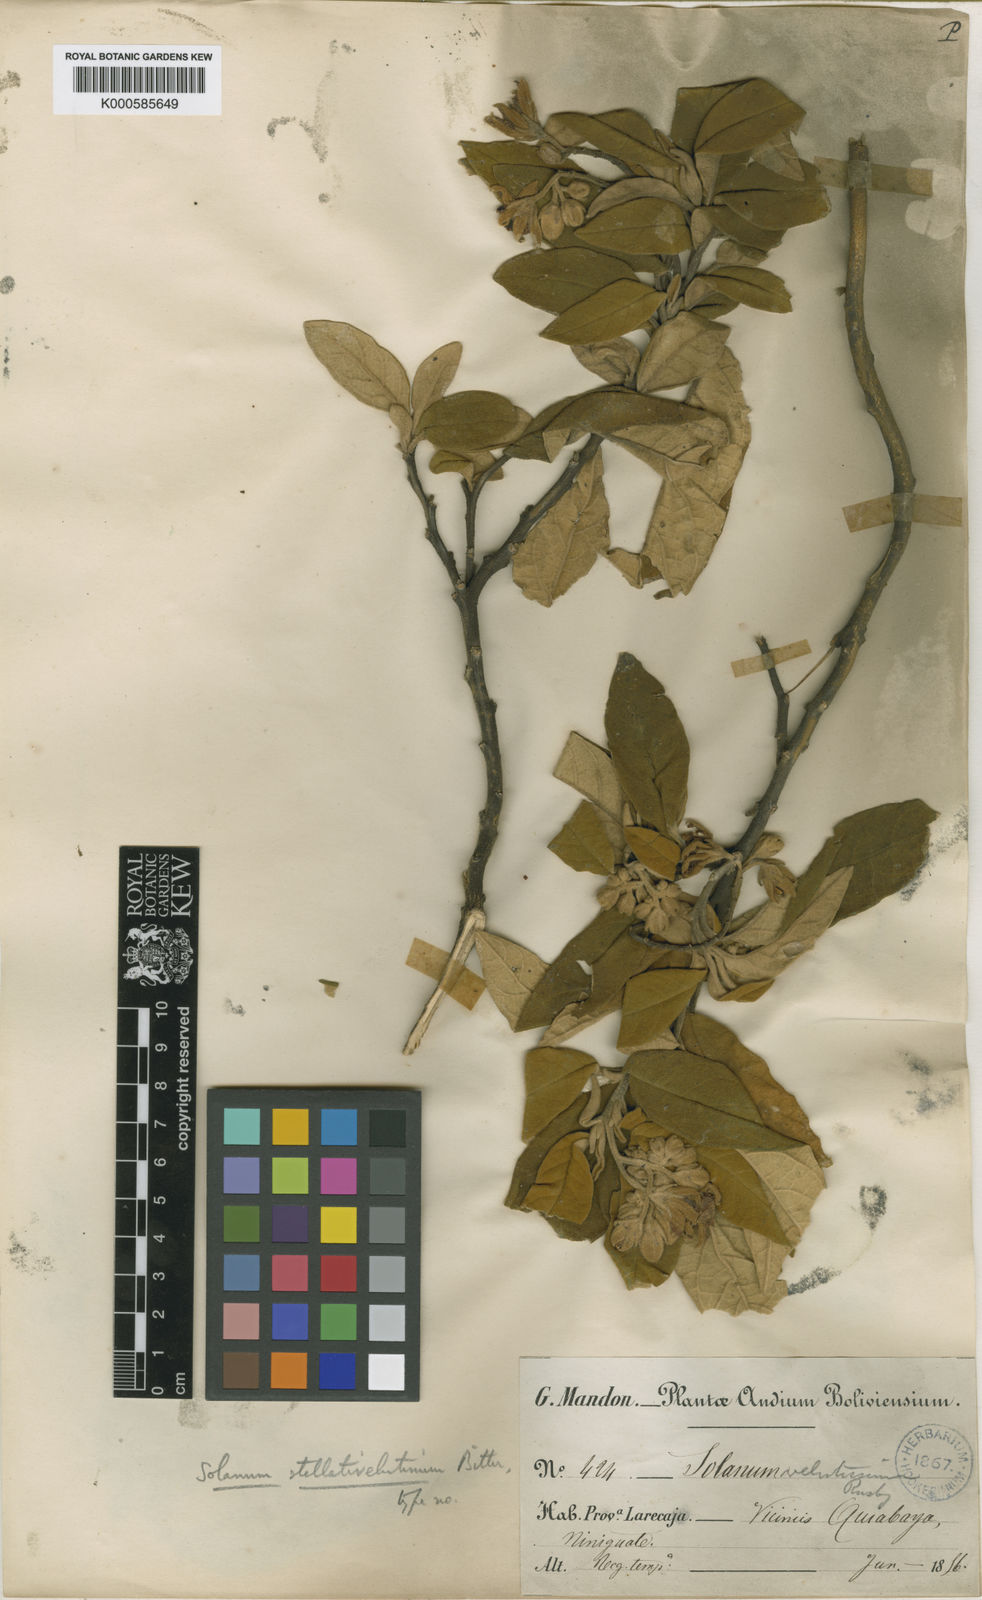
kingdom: Plantae
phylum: Tracheophyta
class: Magnoliopsida
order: Solanales
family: Solanaceae
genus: Solanum
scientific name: Solanum stellativelutinum
